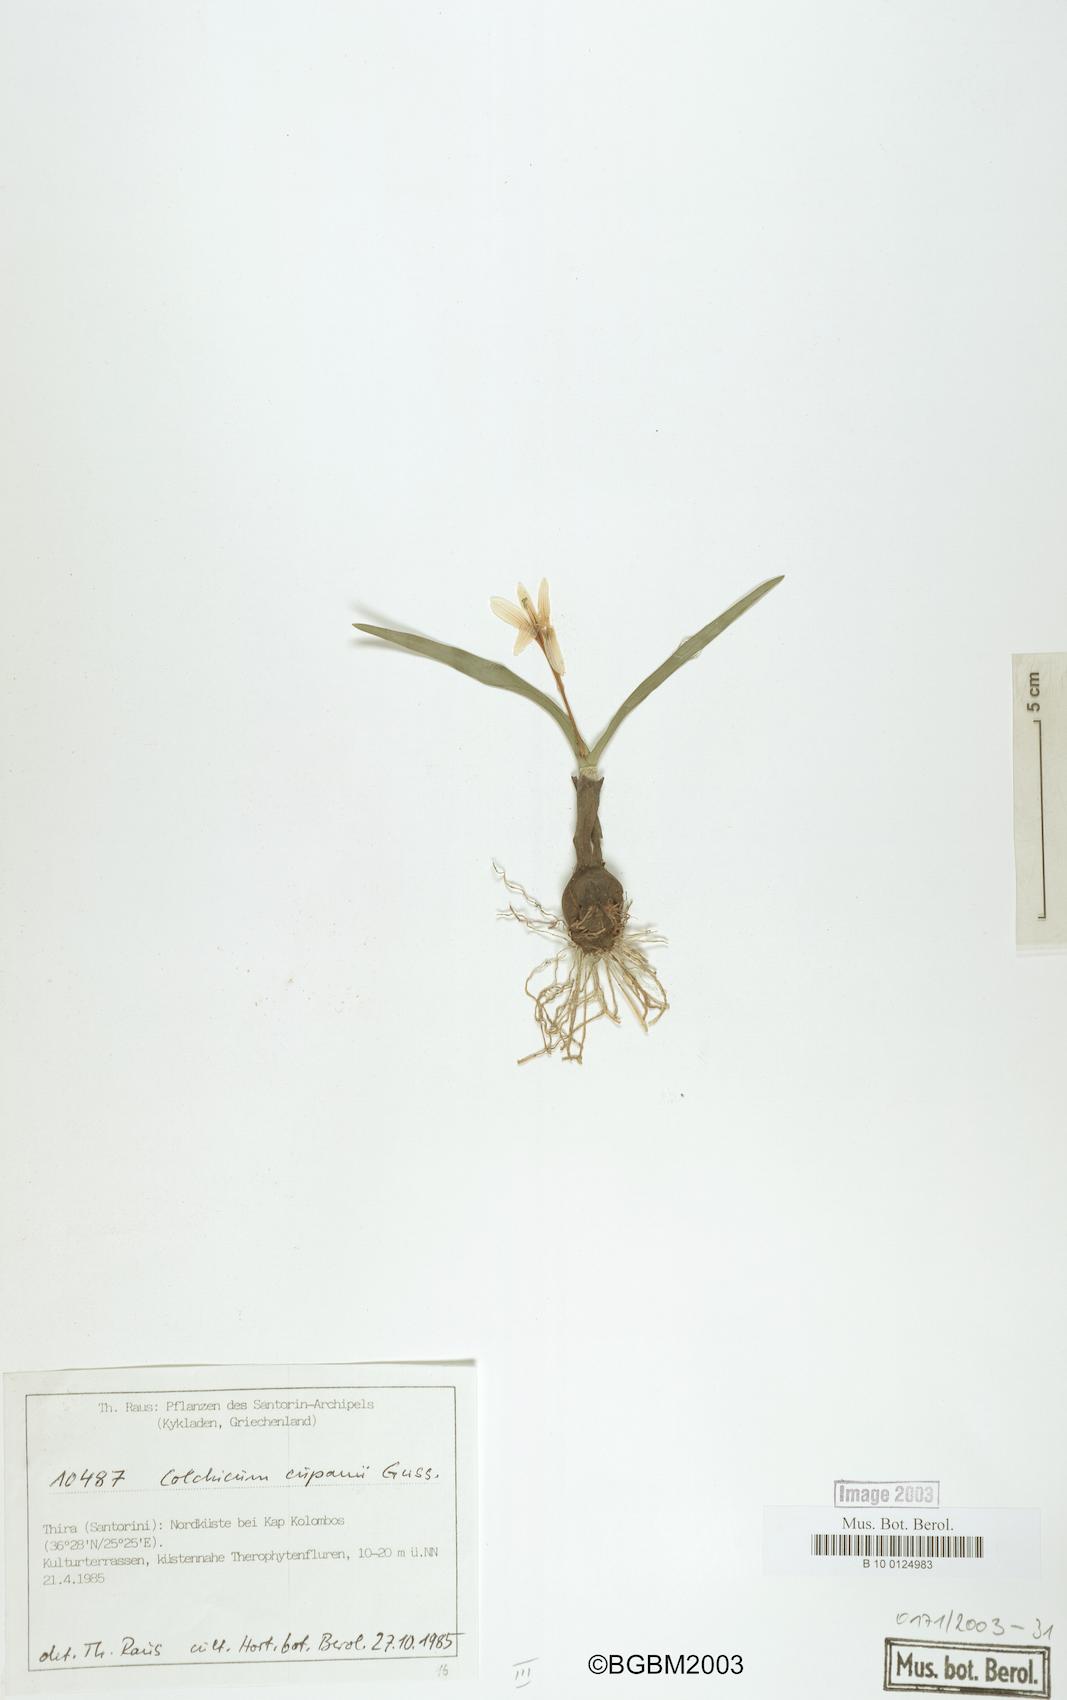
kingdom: Plantae
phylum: Tracheophyta
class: Liliopsida
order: Liliales
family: Colchicaceae
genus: Colchicum
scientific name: Colchicum cupanii
